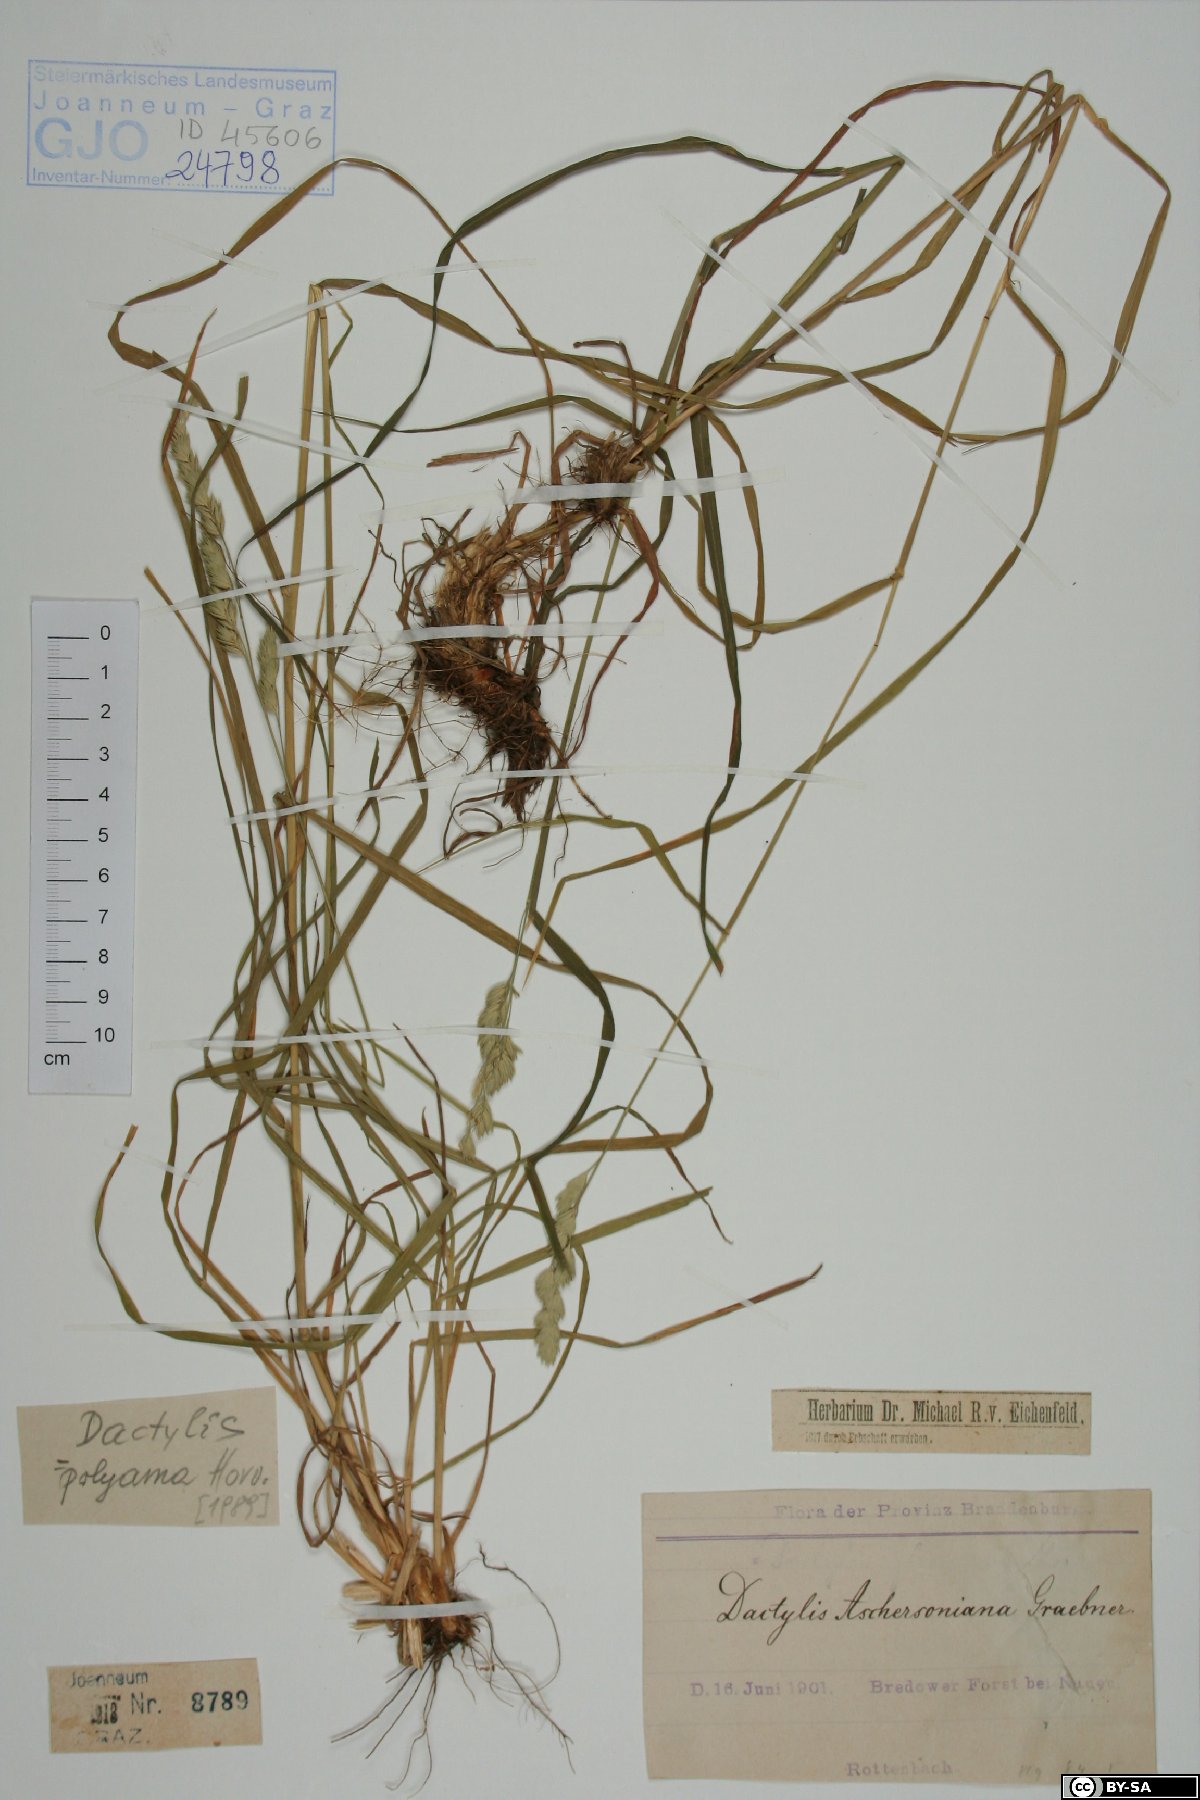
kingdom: Plantae
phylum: Tracheophyta
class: Liliopsida
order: Poales
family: Poaceae
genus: Dactylis
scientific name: Dactylis glomerata
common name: Orchardgrass
